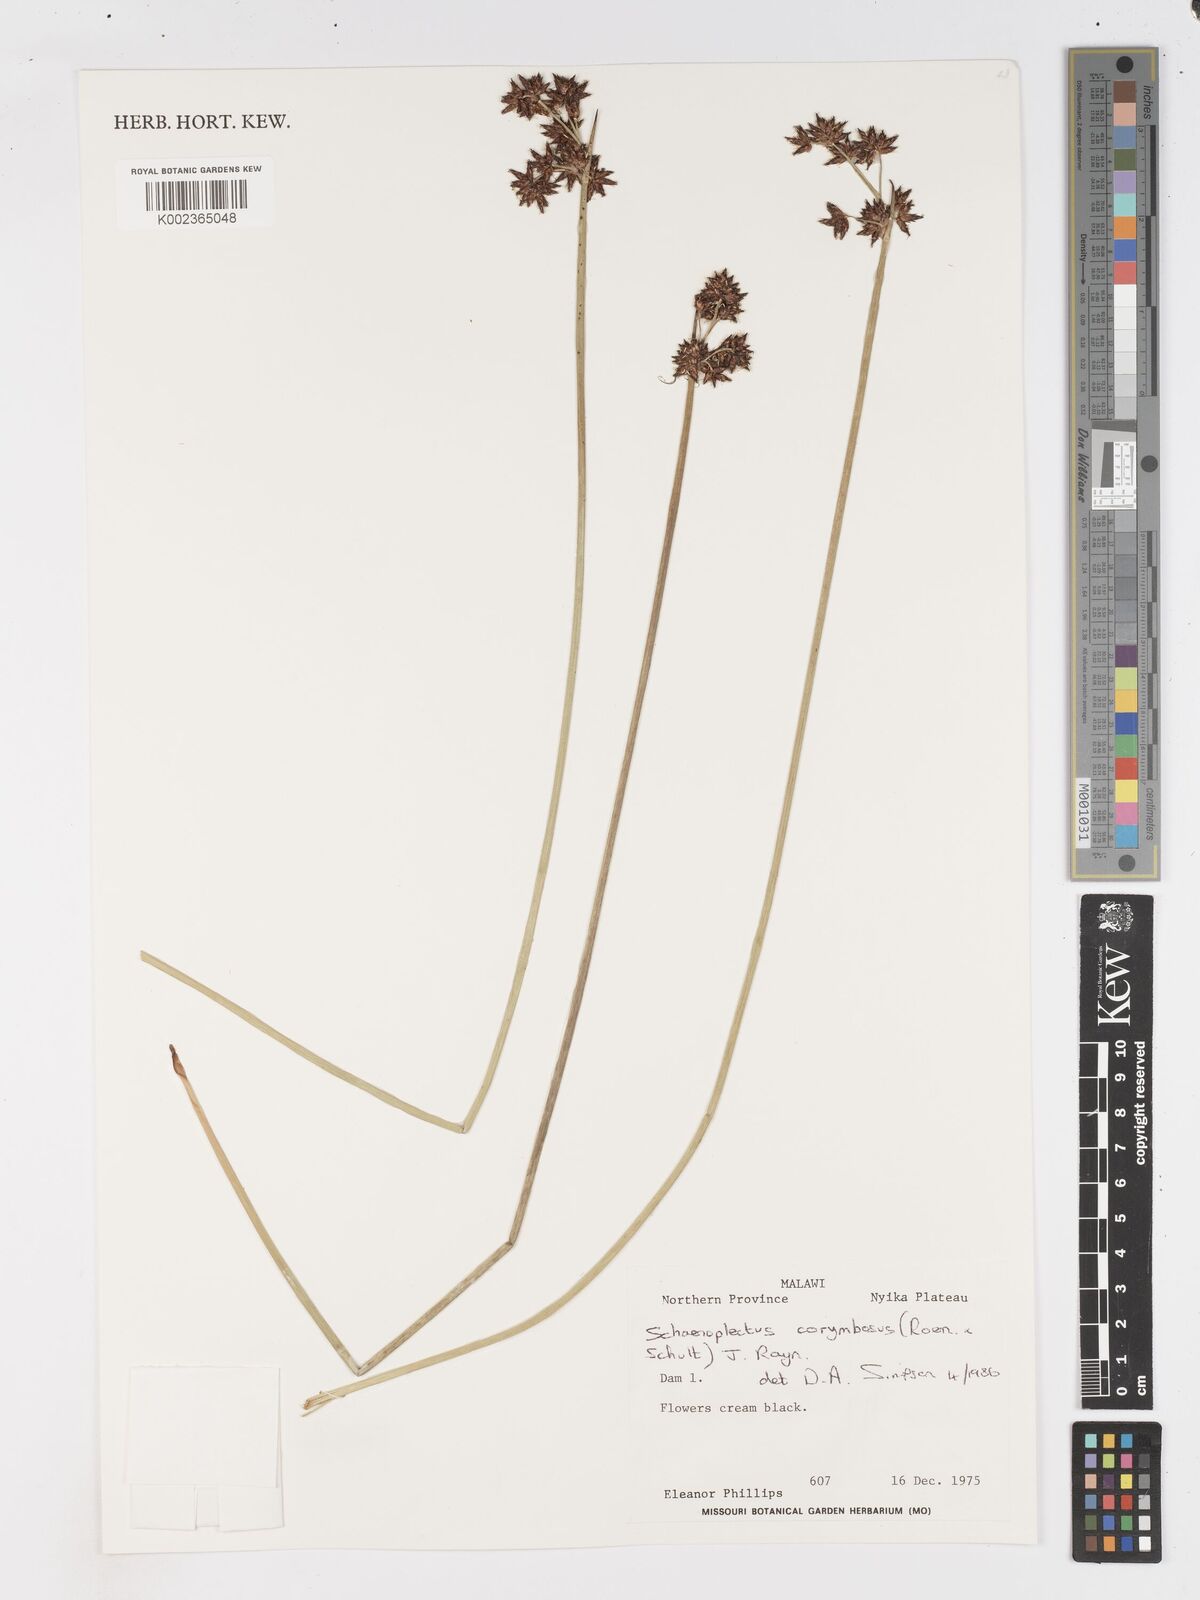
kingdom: Plantae
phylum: Tracheophyta
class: Liliopsida
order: Poales
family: Cyperaceae
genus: Schoenoplectus
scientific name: Schoenoplectus
